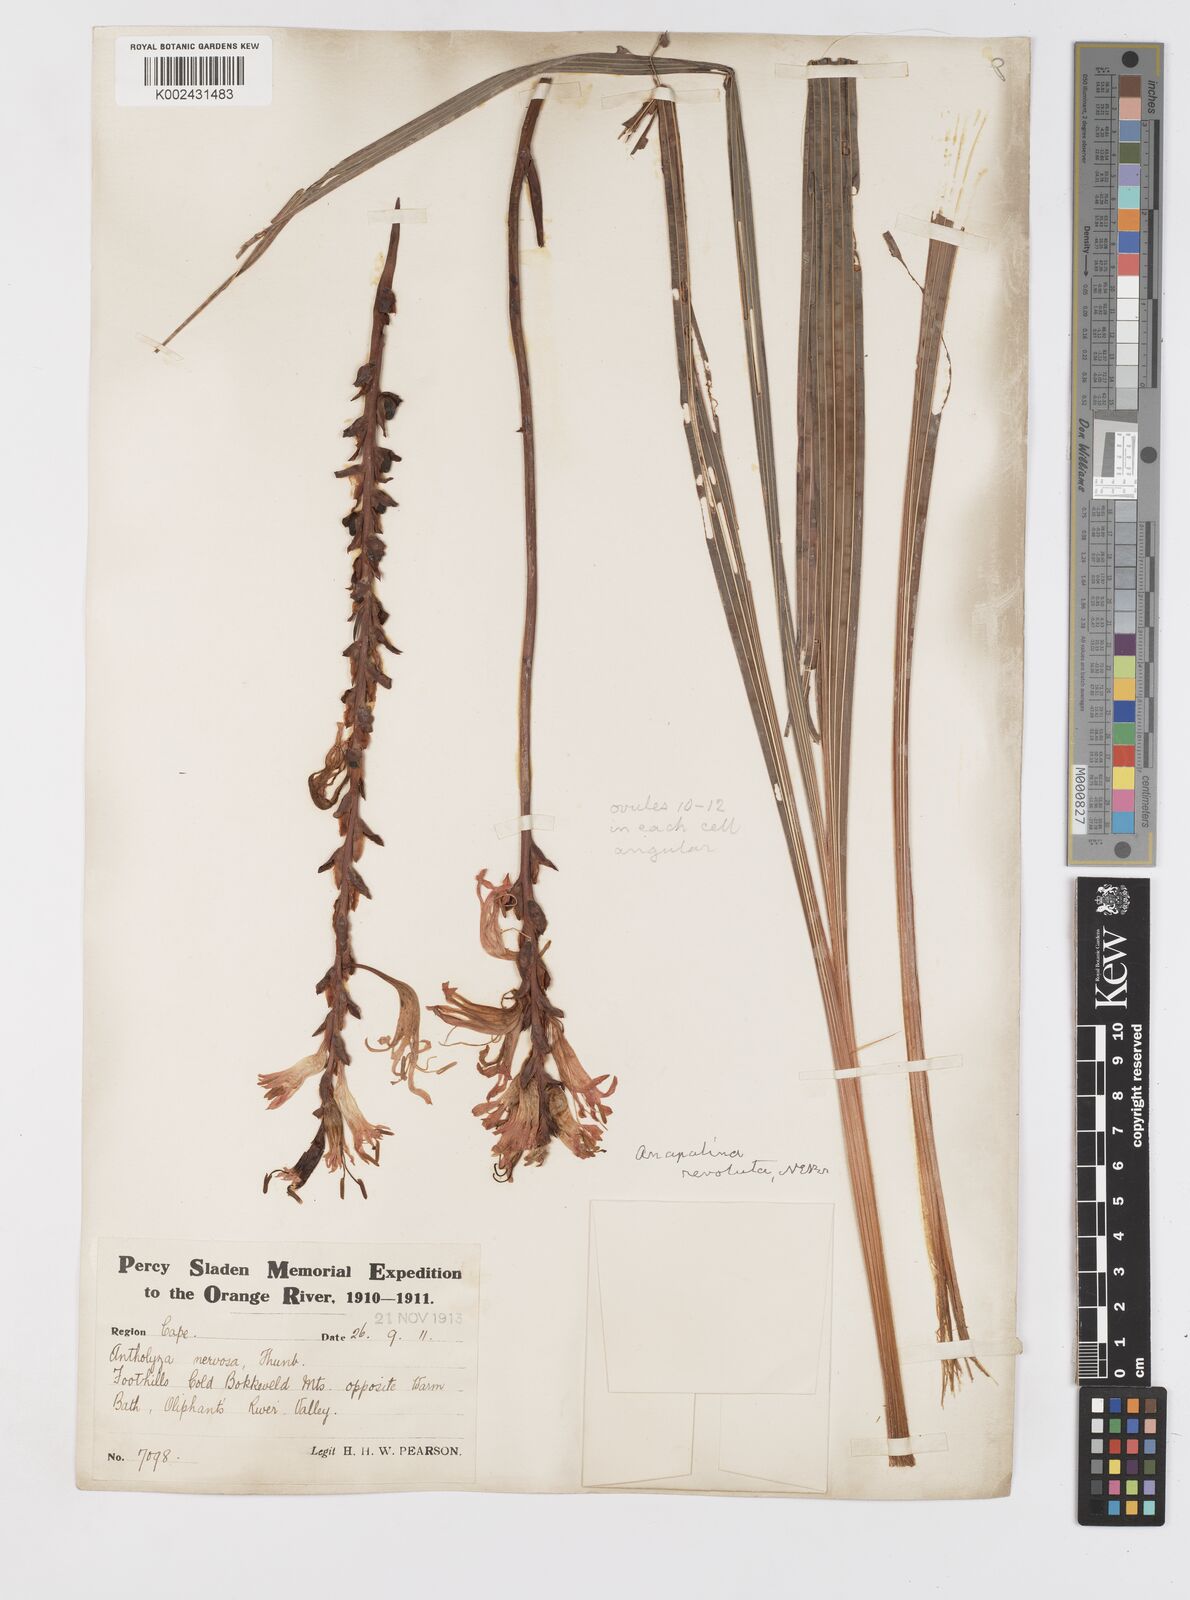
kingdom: Plantae
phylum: Tracheophyta
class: Liliopsida
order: Asparagales
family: Iridaceae
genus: Tritoniopsis
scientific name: Tritoniopsis nervosa
